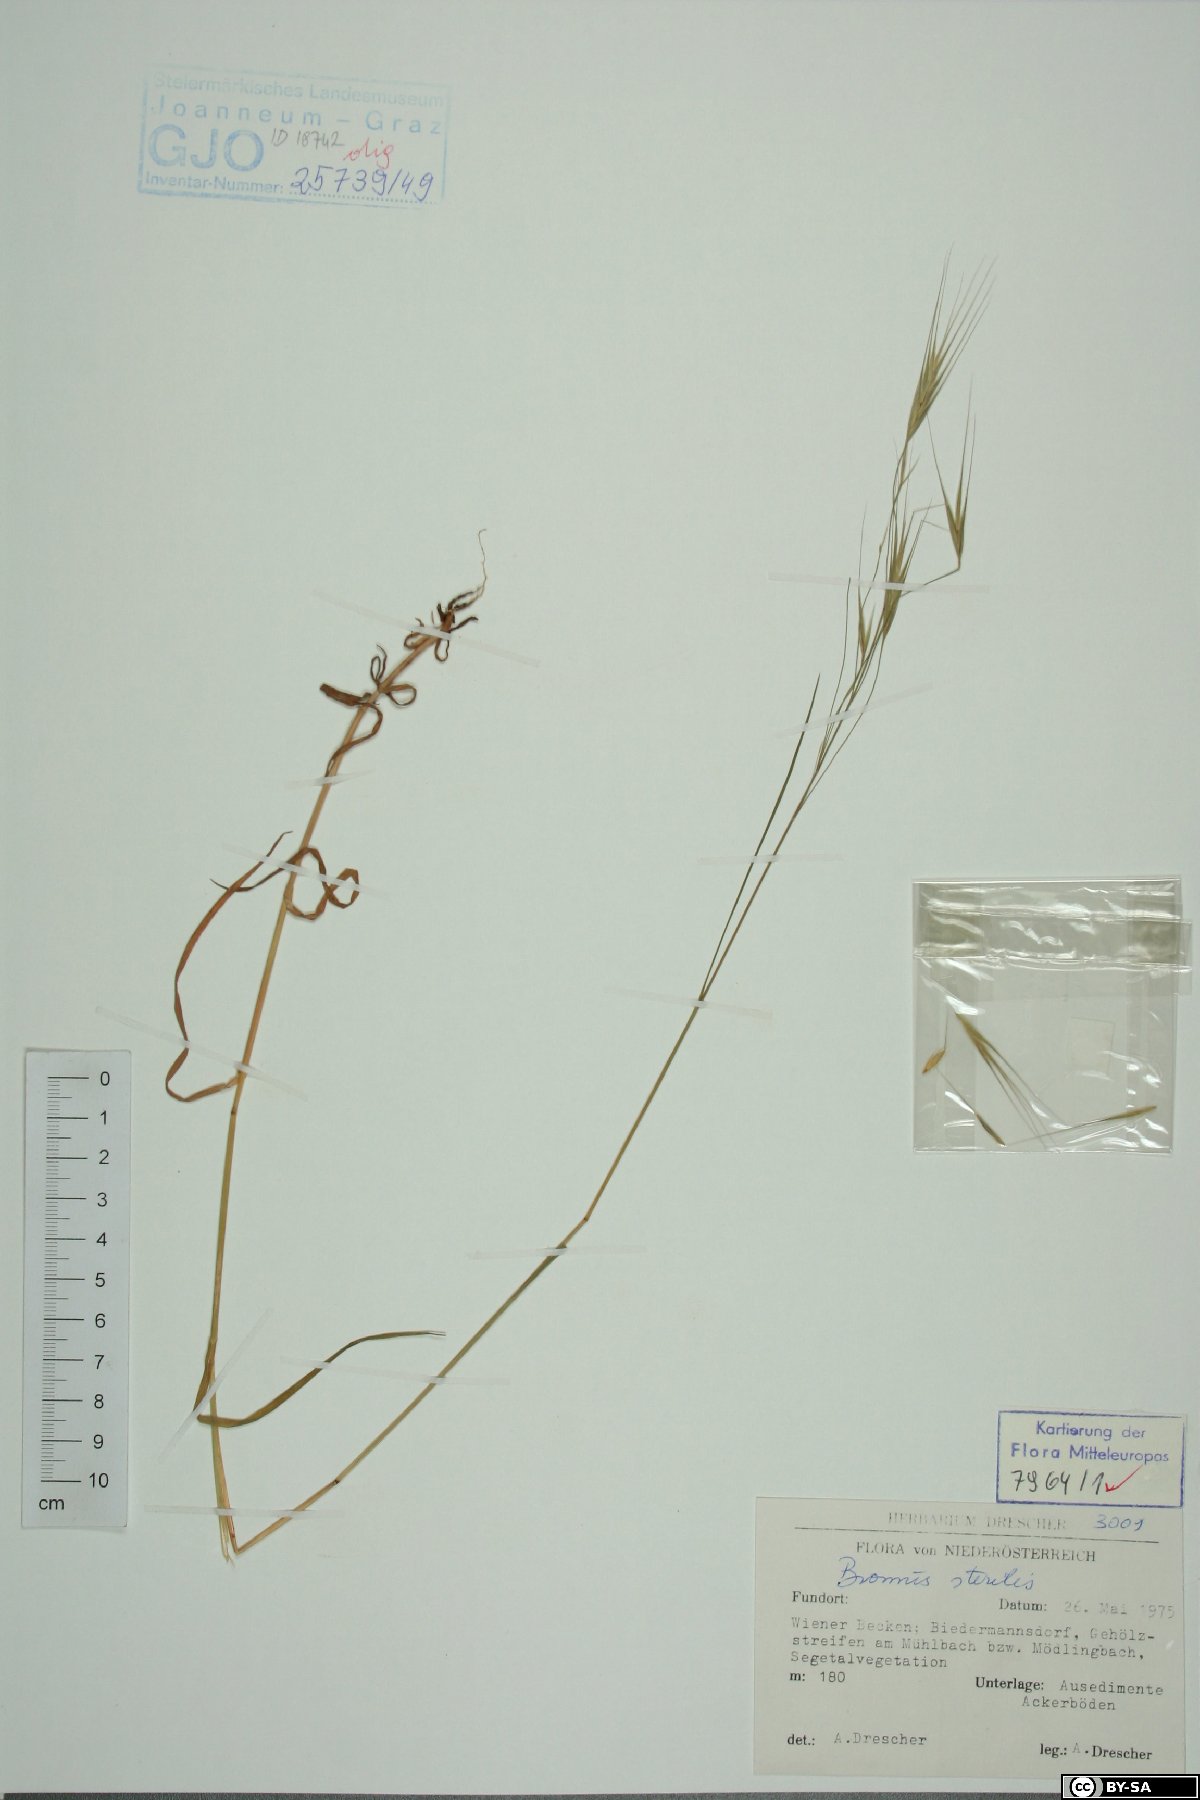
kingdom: Plantae
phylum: Tracheophyta
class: Liliopsida
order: Poales
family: Poaceae
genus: Bromus
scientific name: Bromus sterilis
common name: Poverty brome
